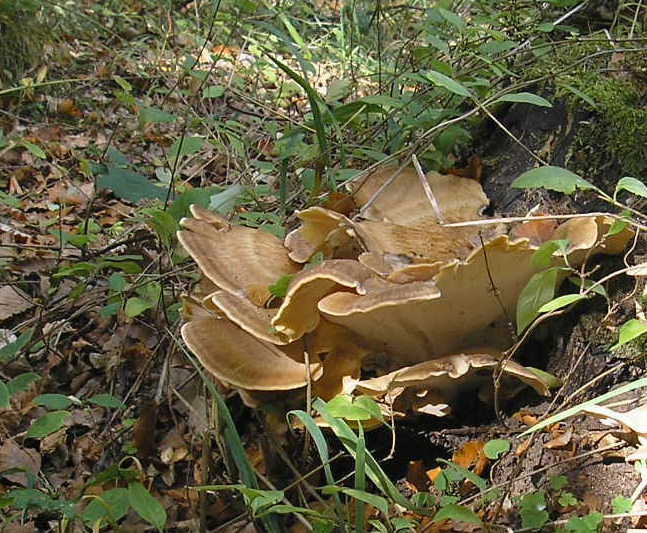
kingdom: Fungi
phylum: Basidiomycota
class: Agaricomycetes
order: Polyporales
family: Meripilaceae
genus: Meripilus
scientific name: Meripilus giganteus
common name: kæmpeporesvamp
